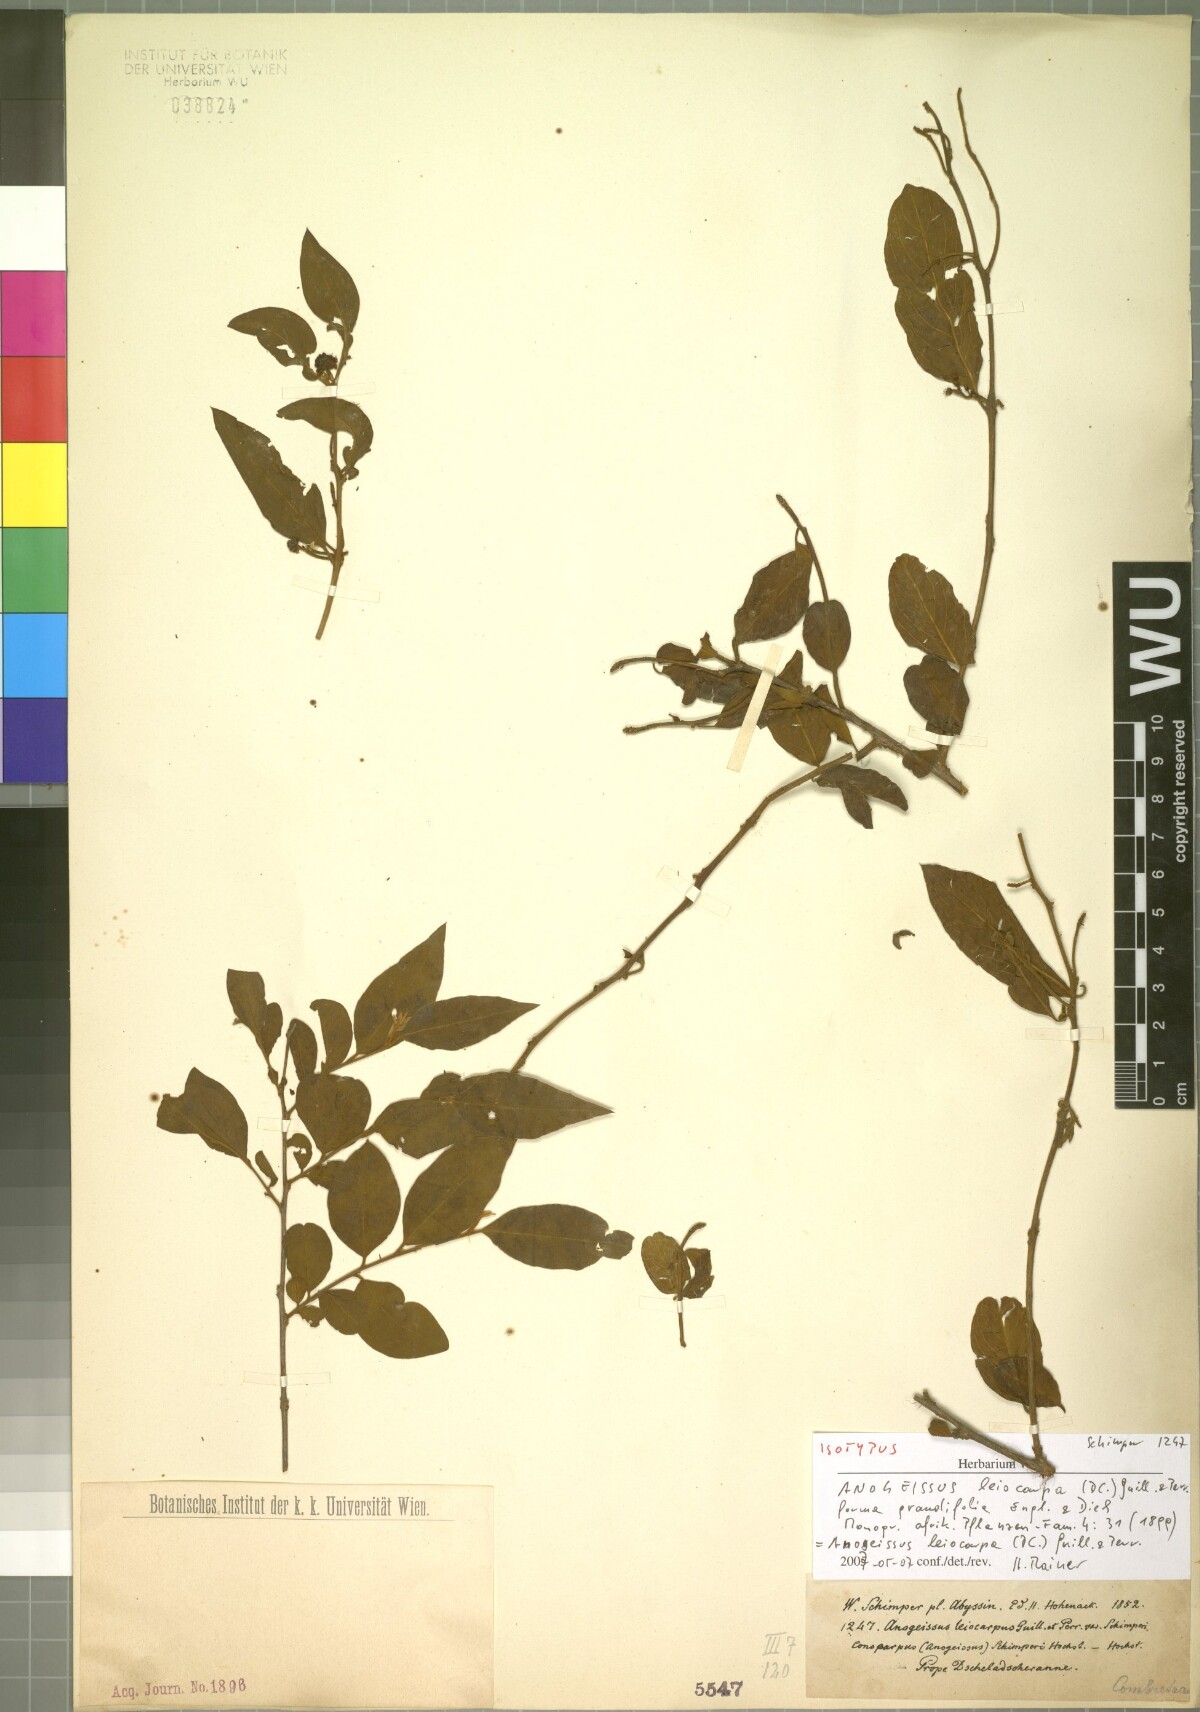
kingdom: Plantae
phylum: Tracheophyta
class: Magnoliopsida
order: Myrtales
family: Combretaceae
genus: Terminalia
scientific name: Terminalia leiocarpa
